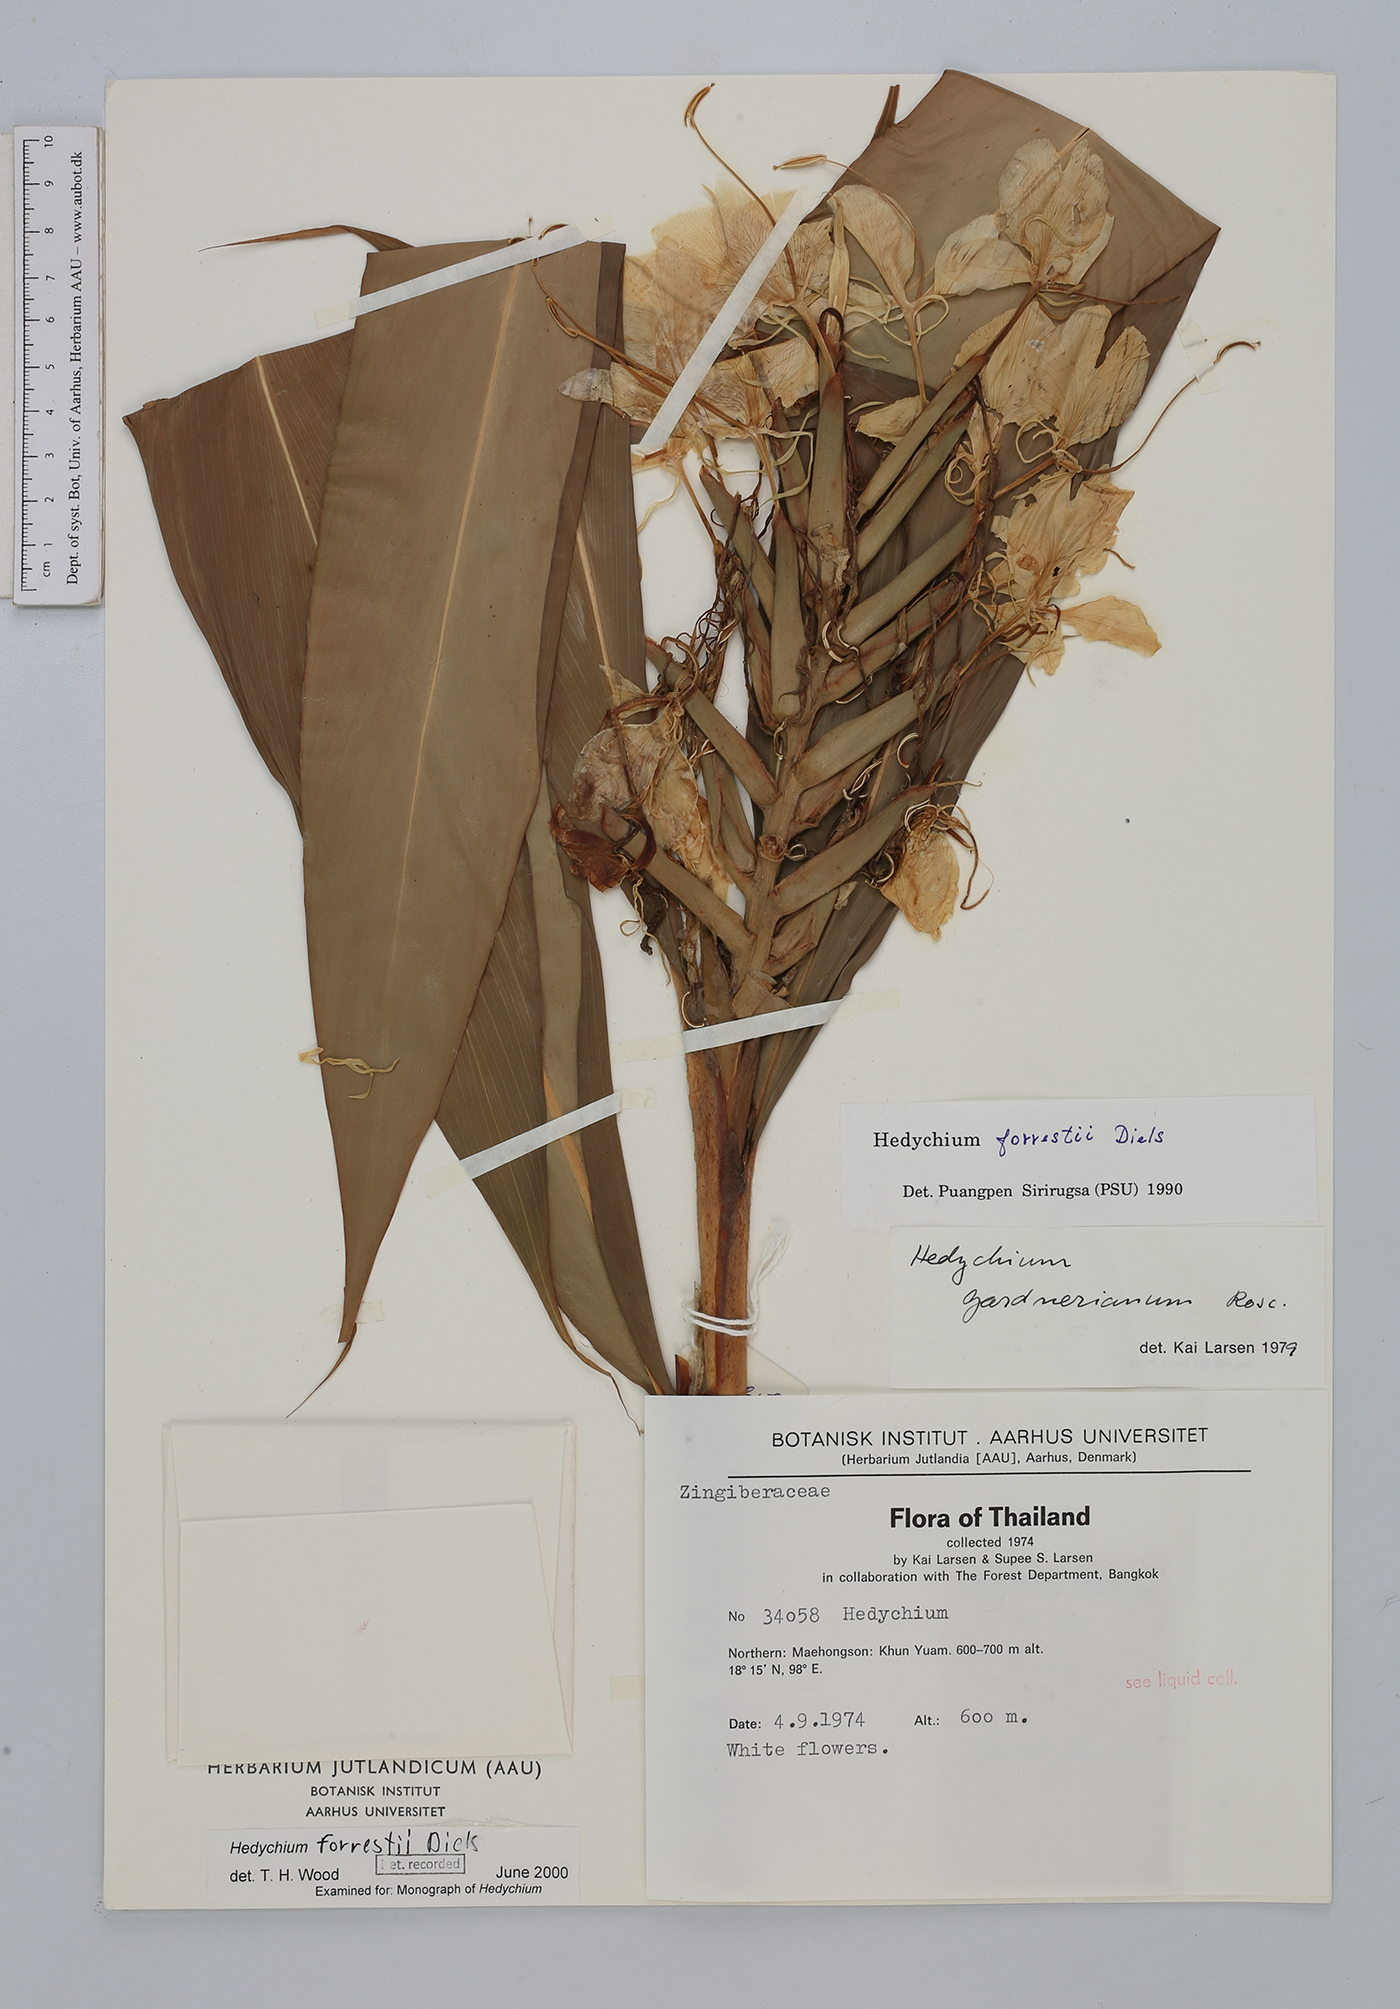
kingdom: Plantae
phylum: Tracheophyta
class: Liliopsida
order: Zingiberales
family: Zingiberaceae
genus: Hedychium
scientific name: Hedychium forrestii
